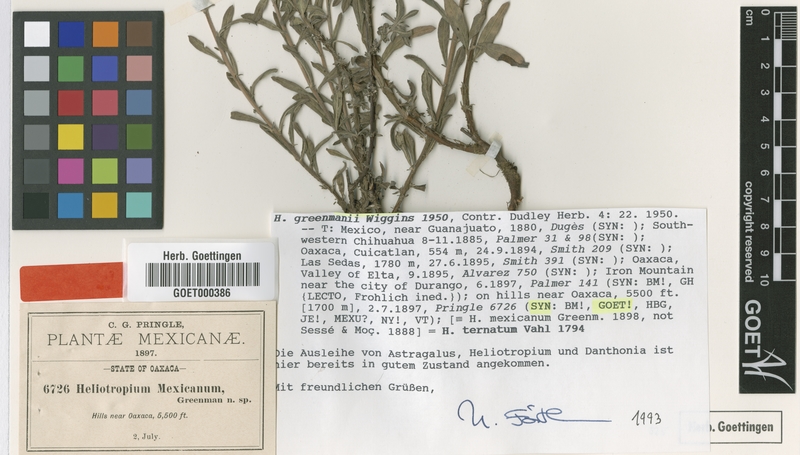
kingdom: Plantae
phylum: Tracheophyta
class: Magnoliopsida
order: Boraginales
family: Heliotropiaceae
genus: Euploca
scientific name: Euploca humilis
